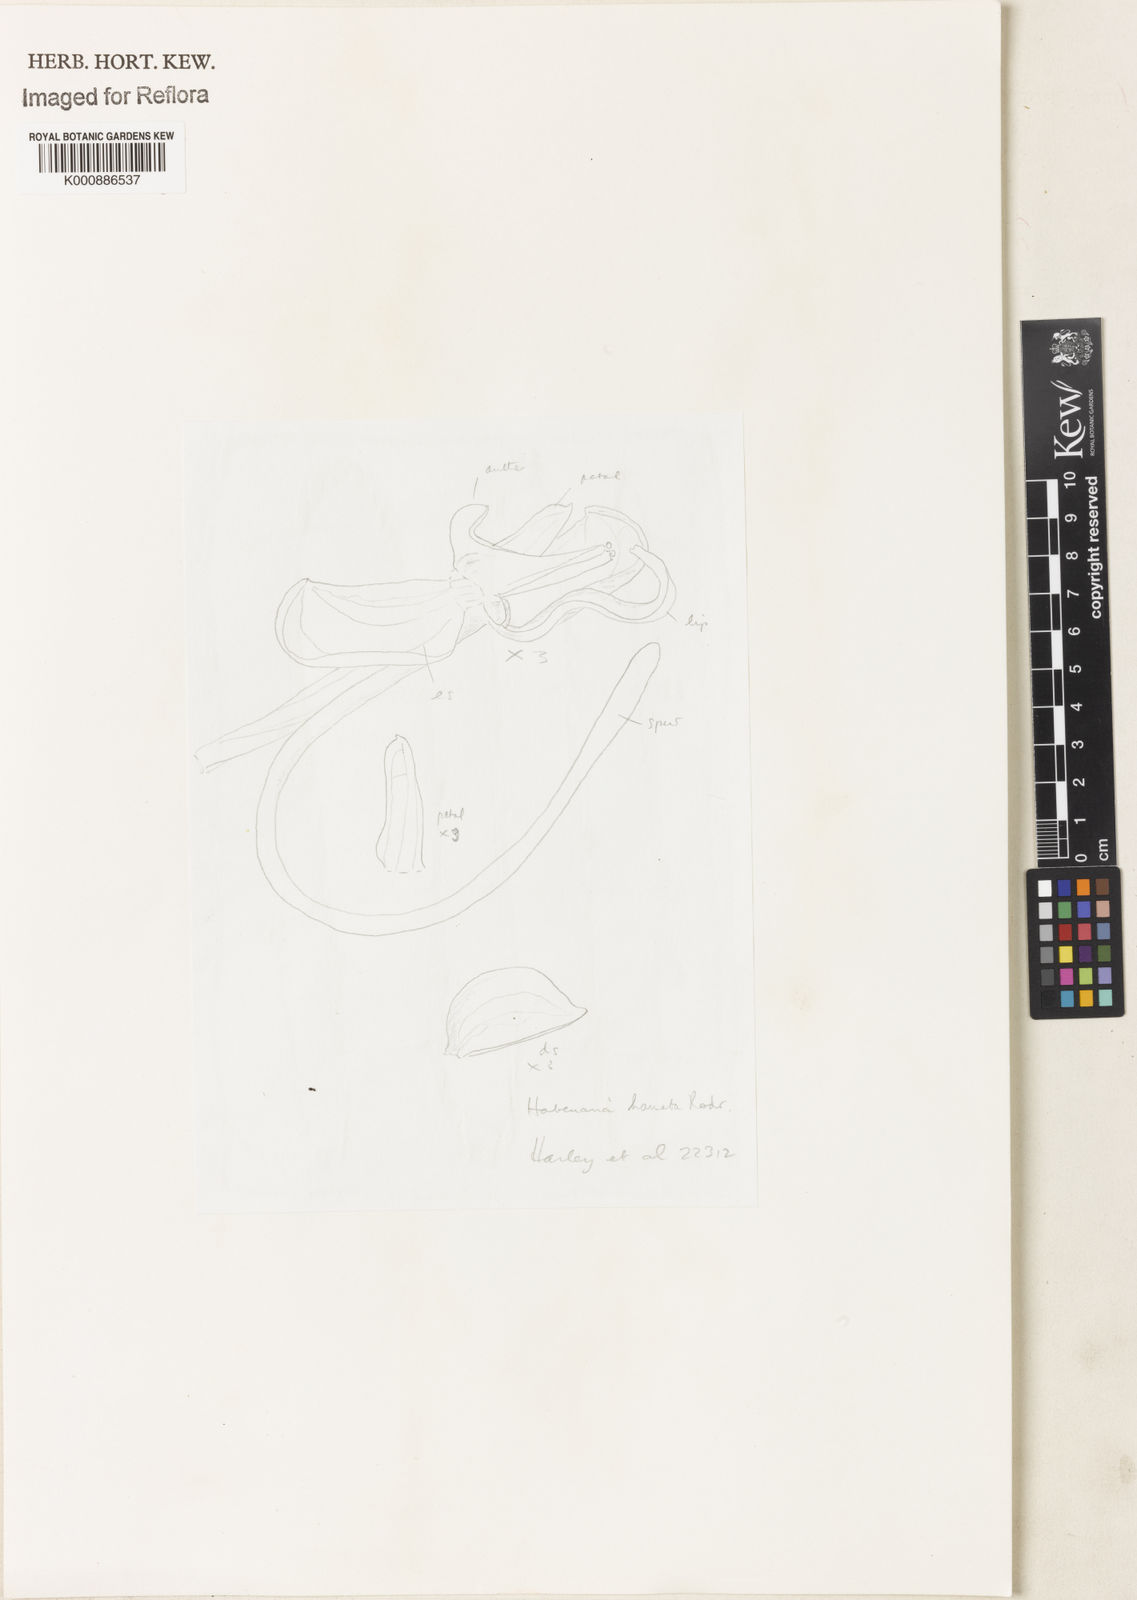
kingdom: Plantae
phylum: Tracheophyta
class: Liliopsida
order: Asparagales
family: Orchidaceae
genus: Habenaria
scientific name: Habenaria hamata
